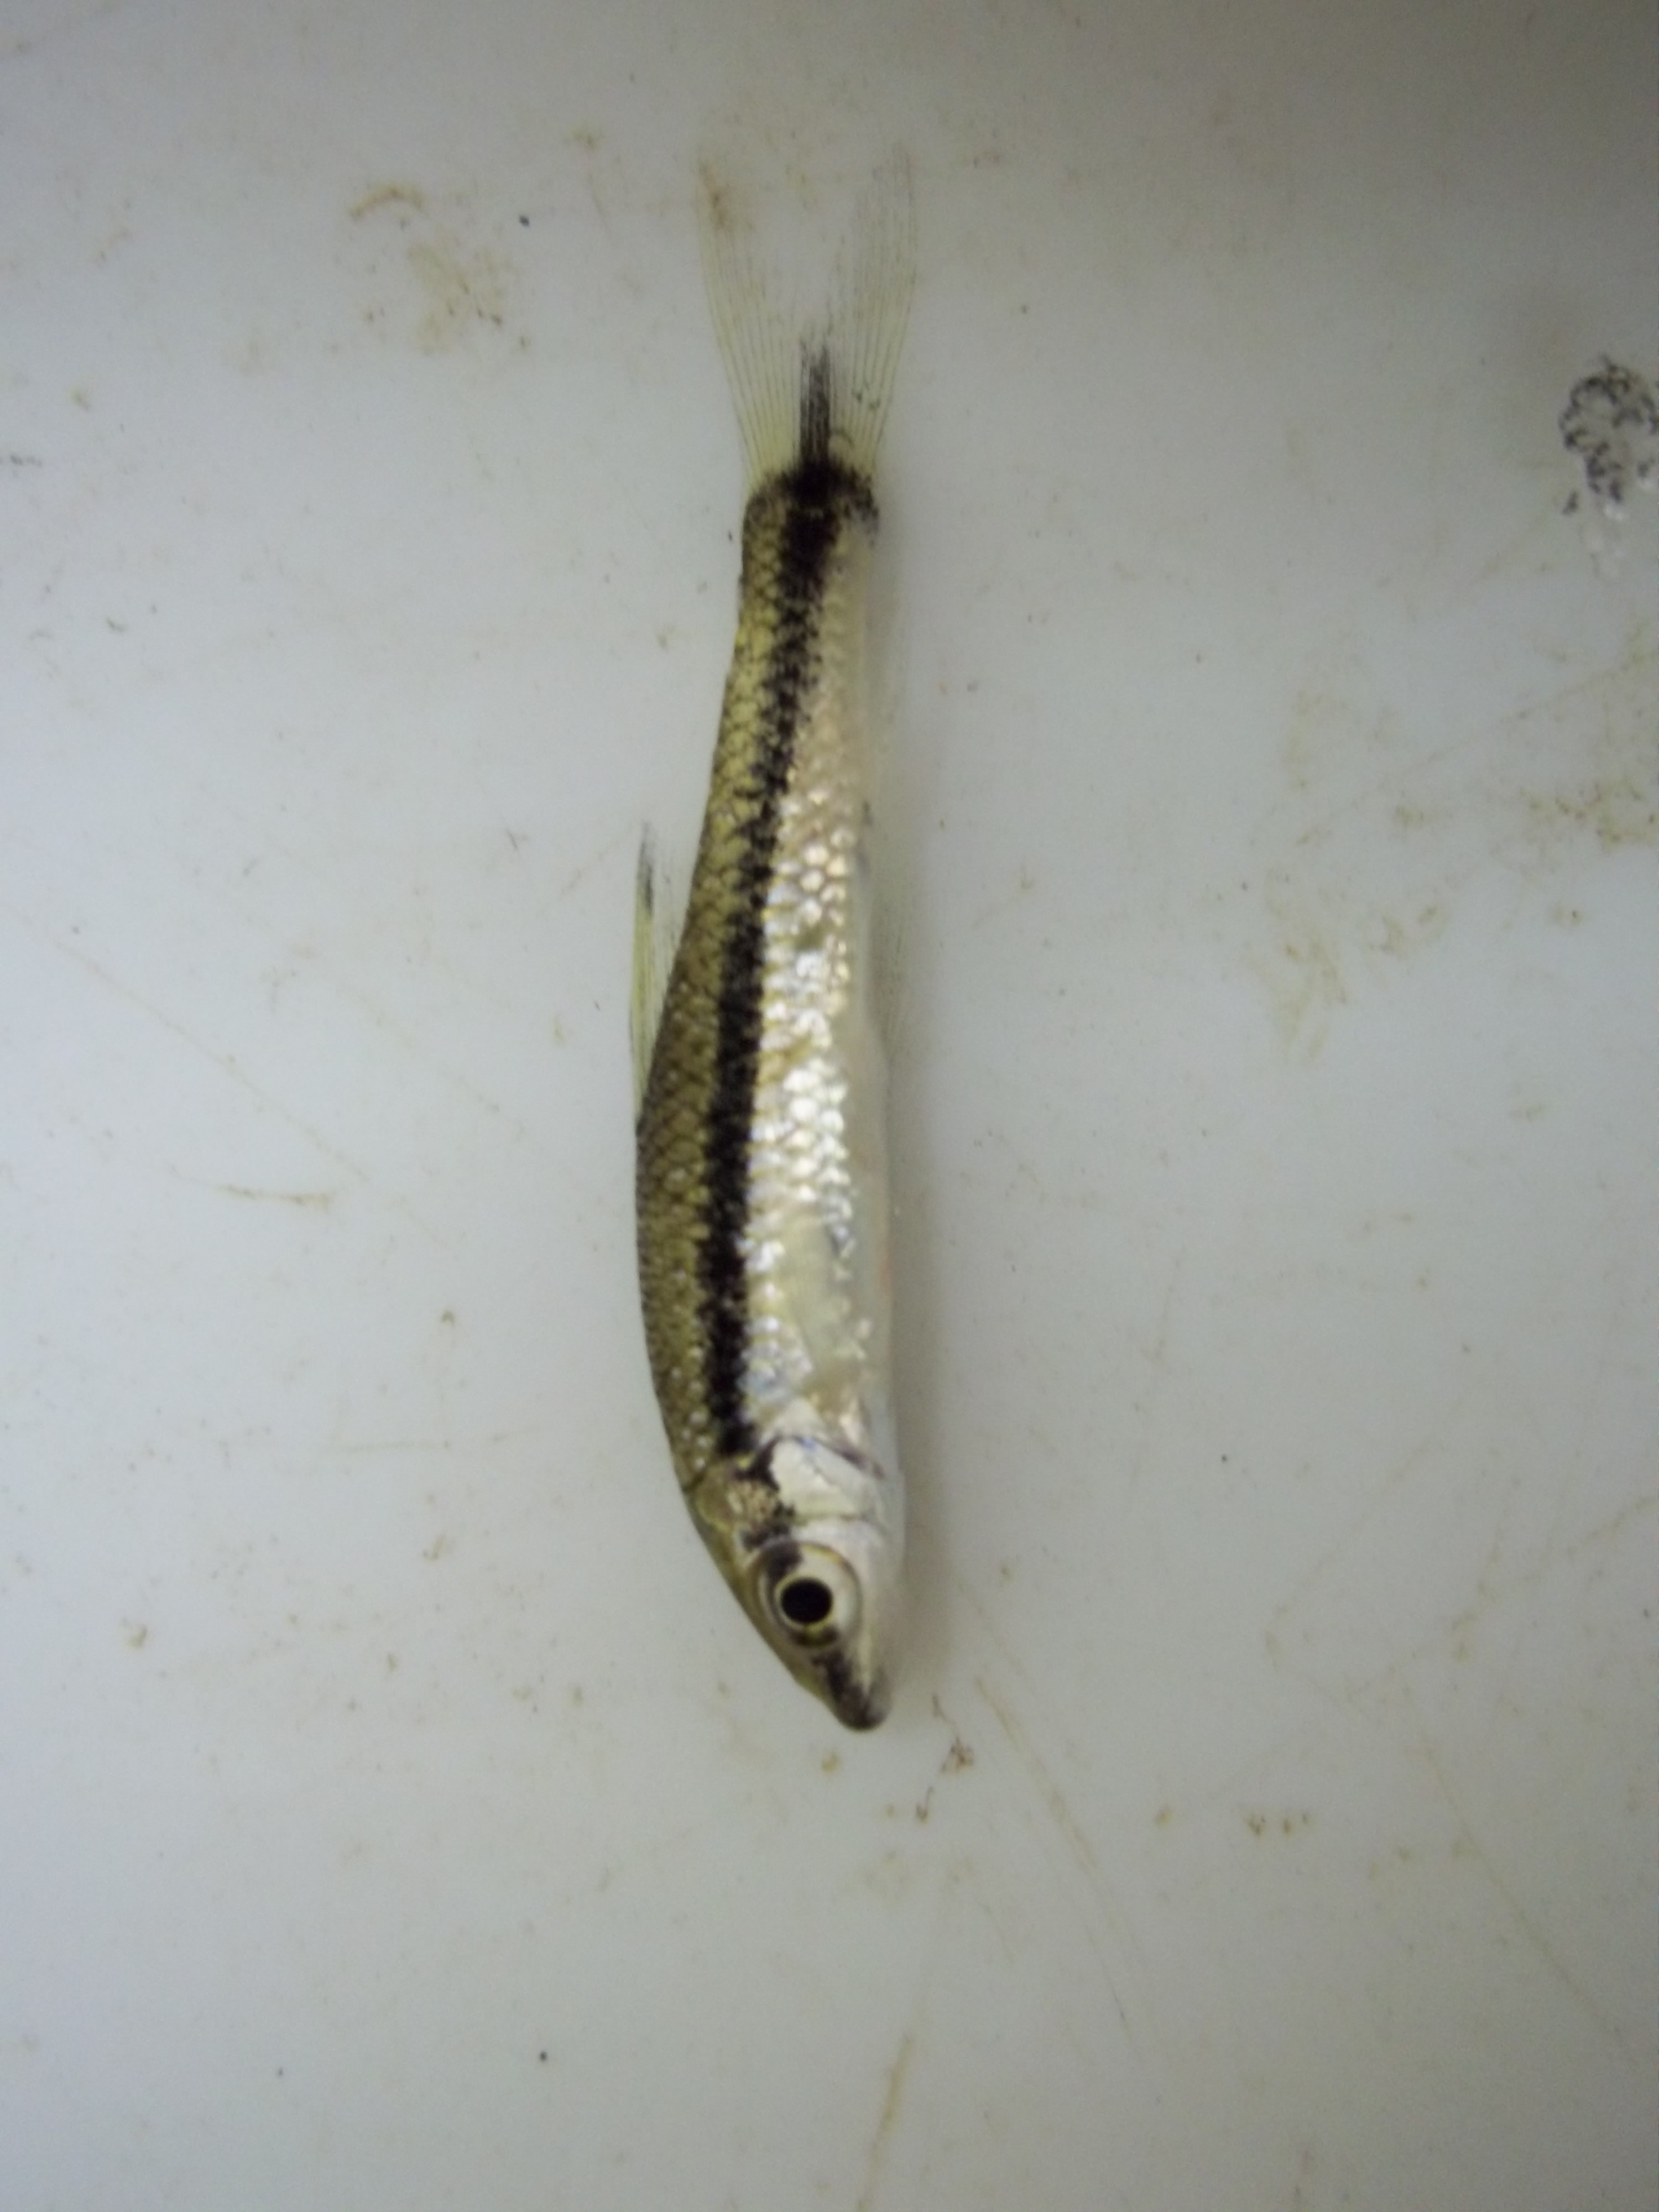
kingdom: Animalia
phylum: Chordata
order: Cypriniformes
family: Cyprinidae
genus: Crossocheilus
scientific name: Crossocheilus oblongus
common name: Siamese algae-eater
